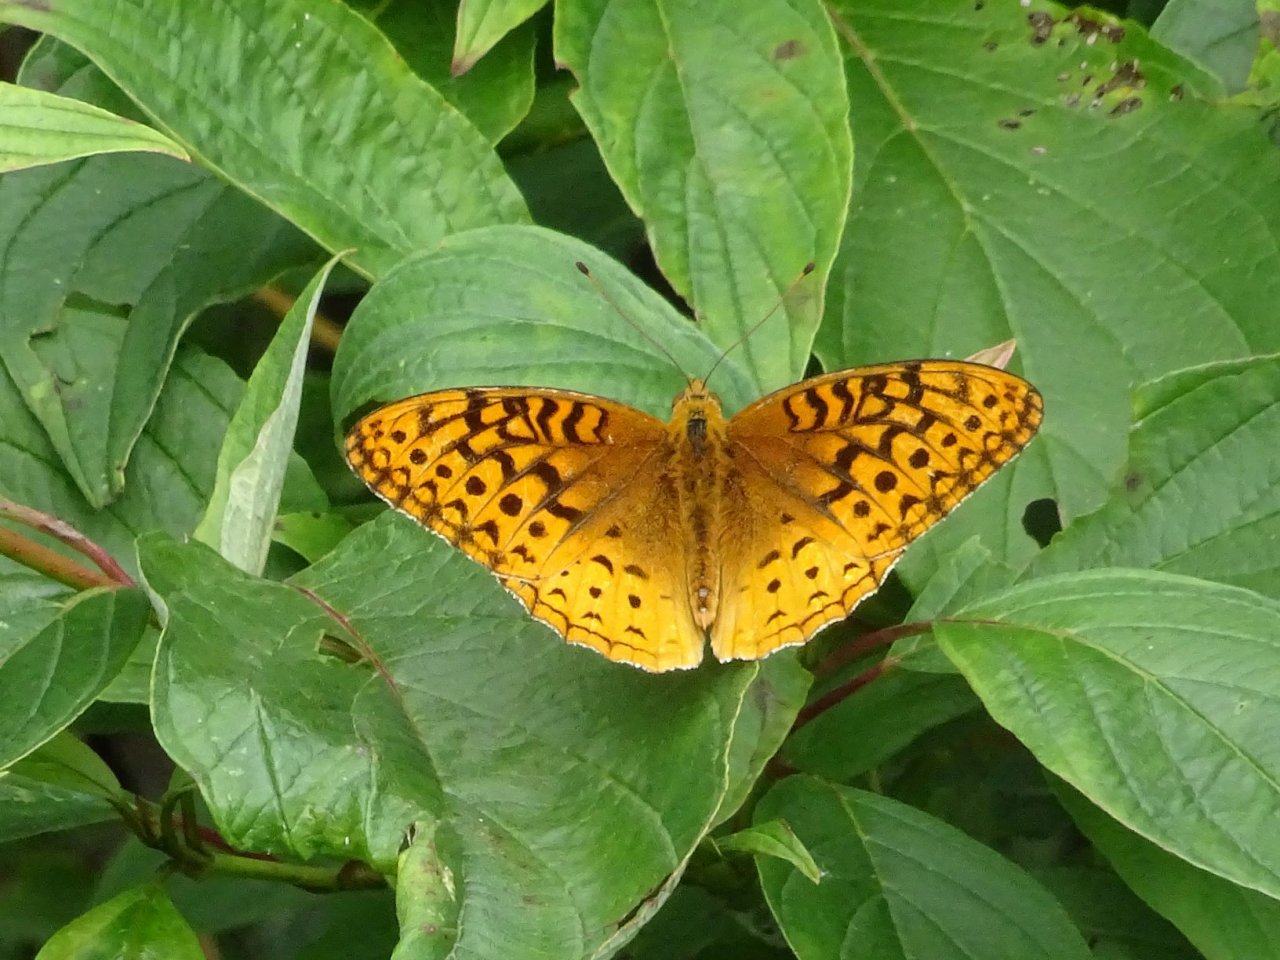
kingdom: Animalia
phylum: Arthropoda
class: Insecta
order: Lepidoptera
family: Nymphalidae
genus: Speyeria
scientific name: Speyeria cybele
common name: Great Spangled Fritillary
